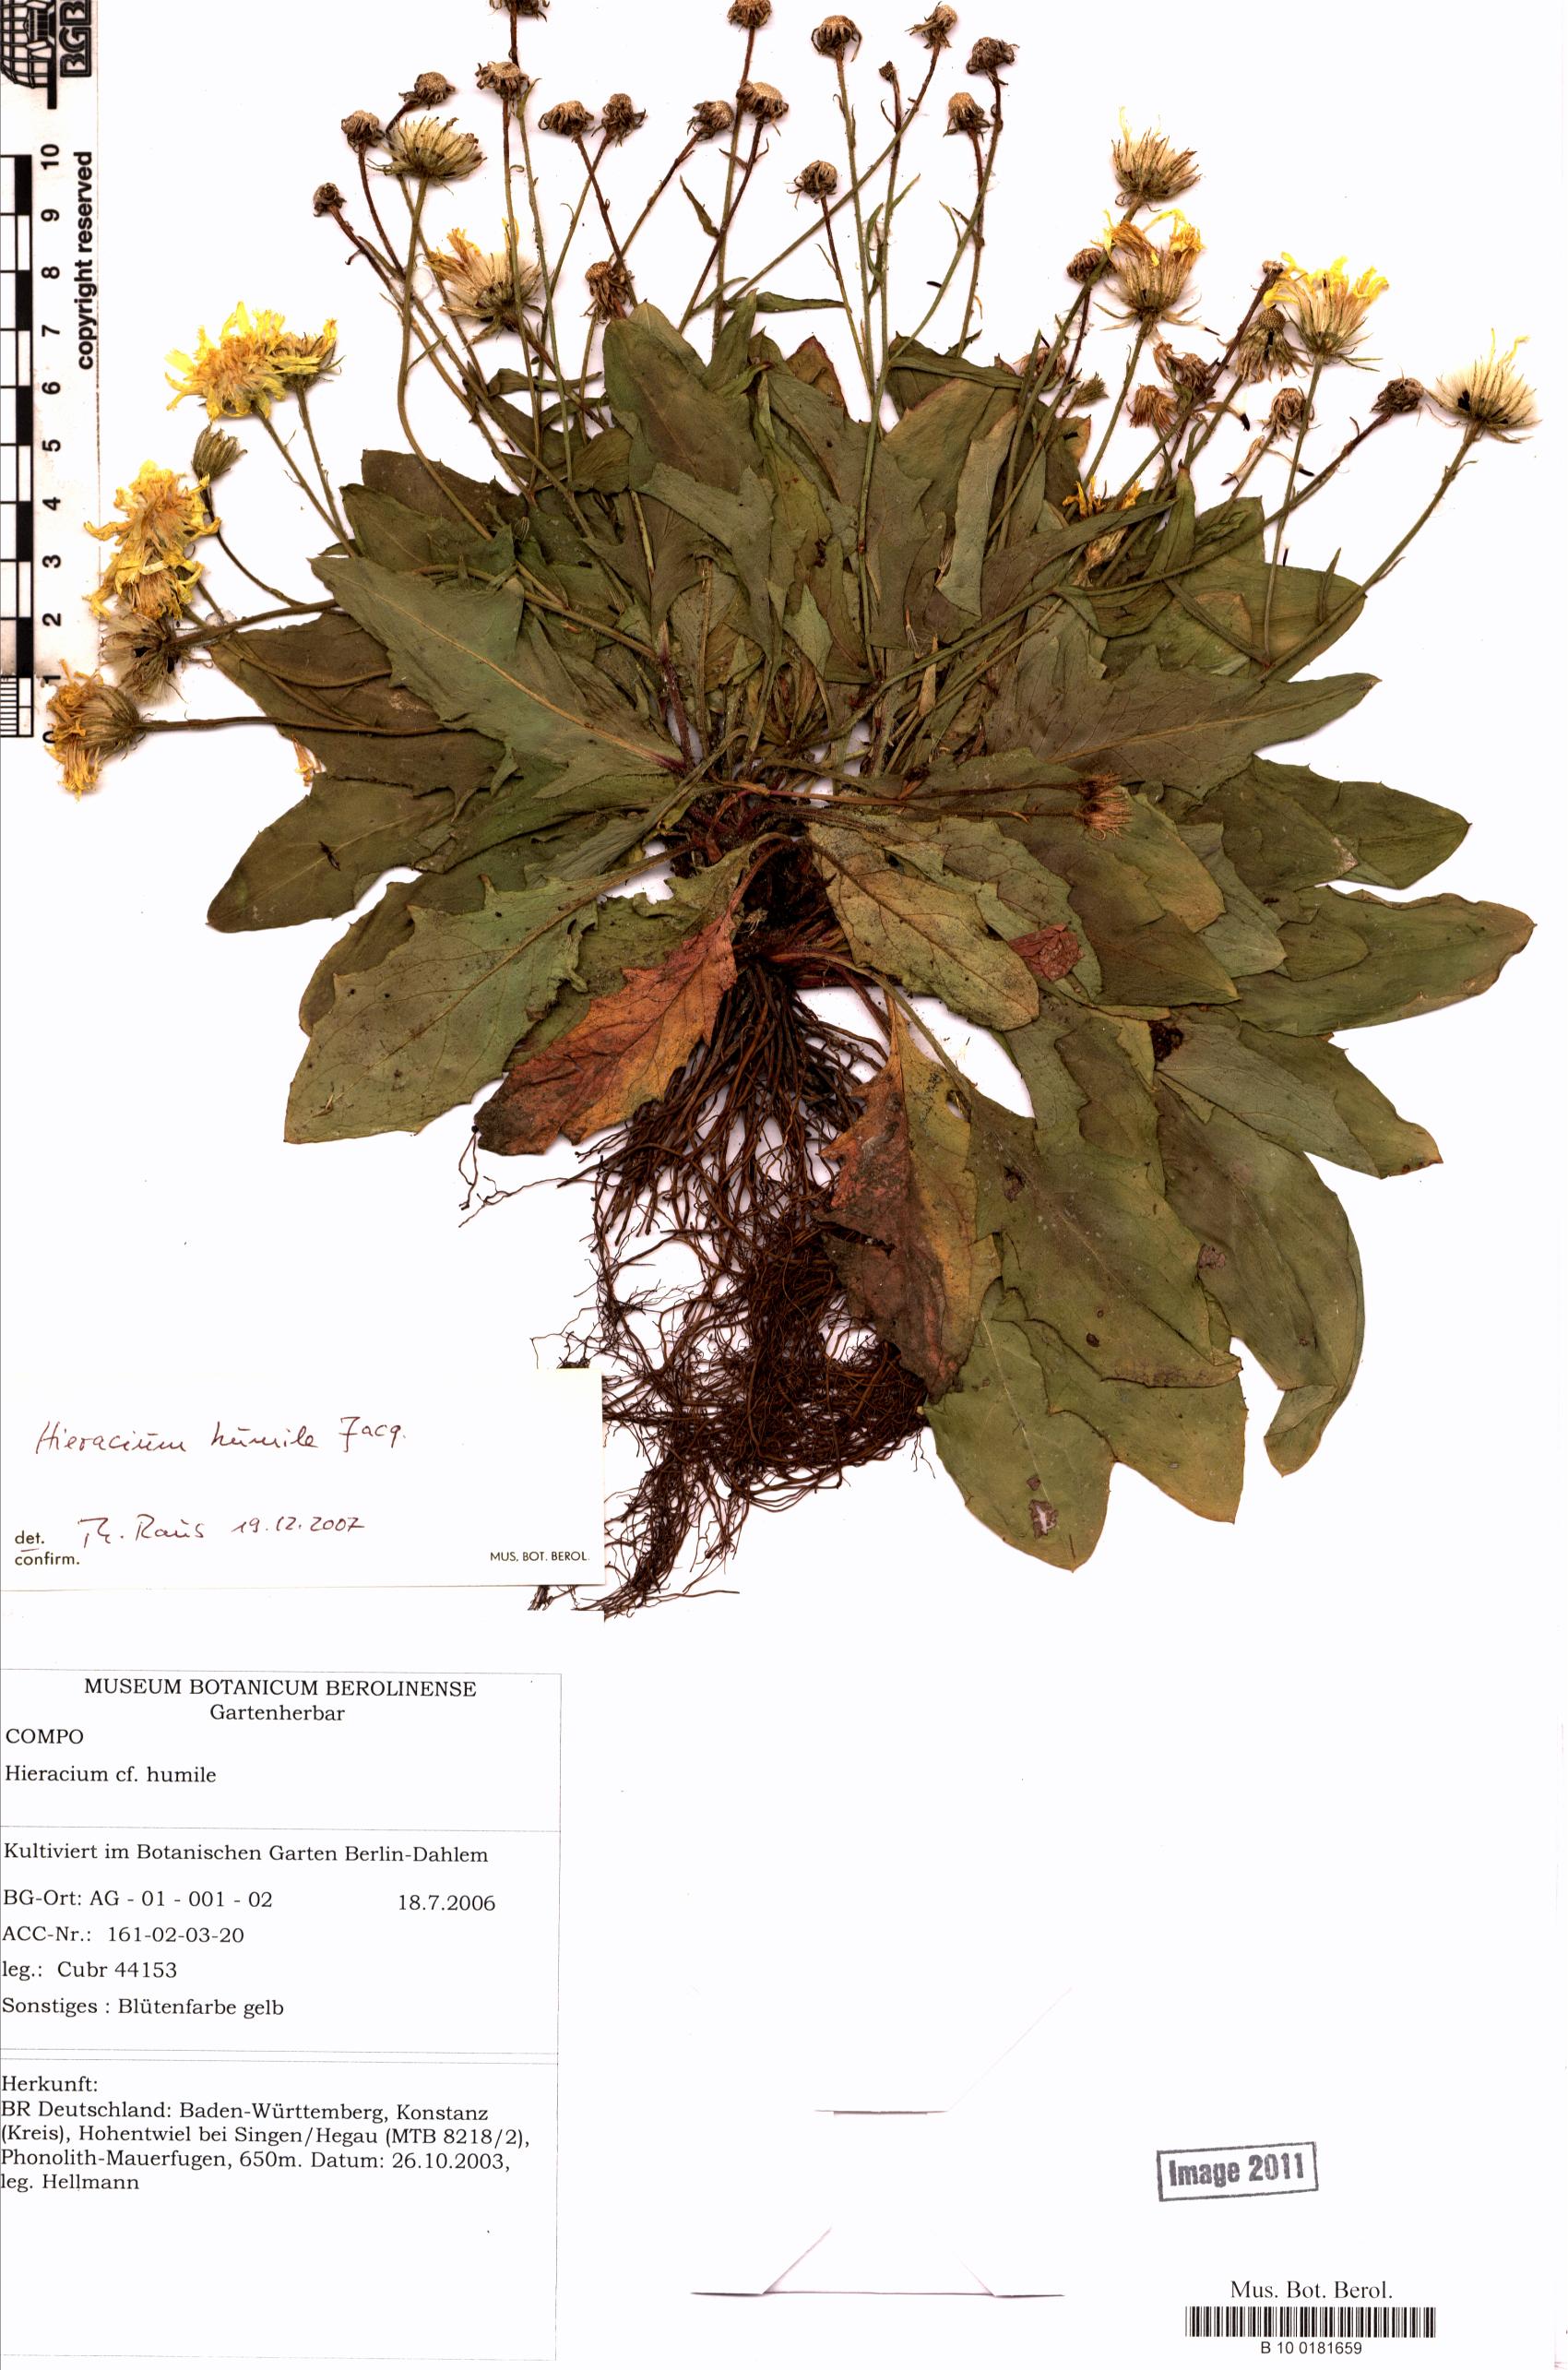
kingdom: Plantae
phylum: Tracheophyta
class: Magnoliopsida
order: Asterales
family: Asteraceae
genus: Hieracium
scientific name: Hieracium humile
